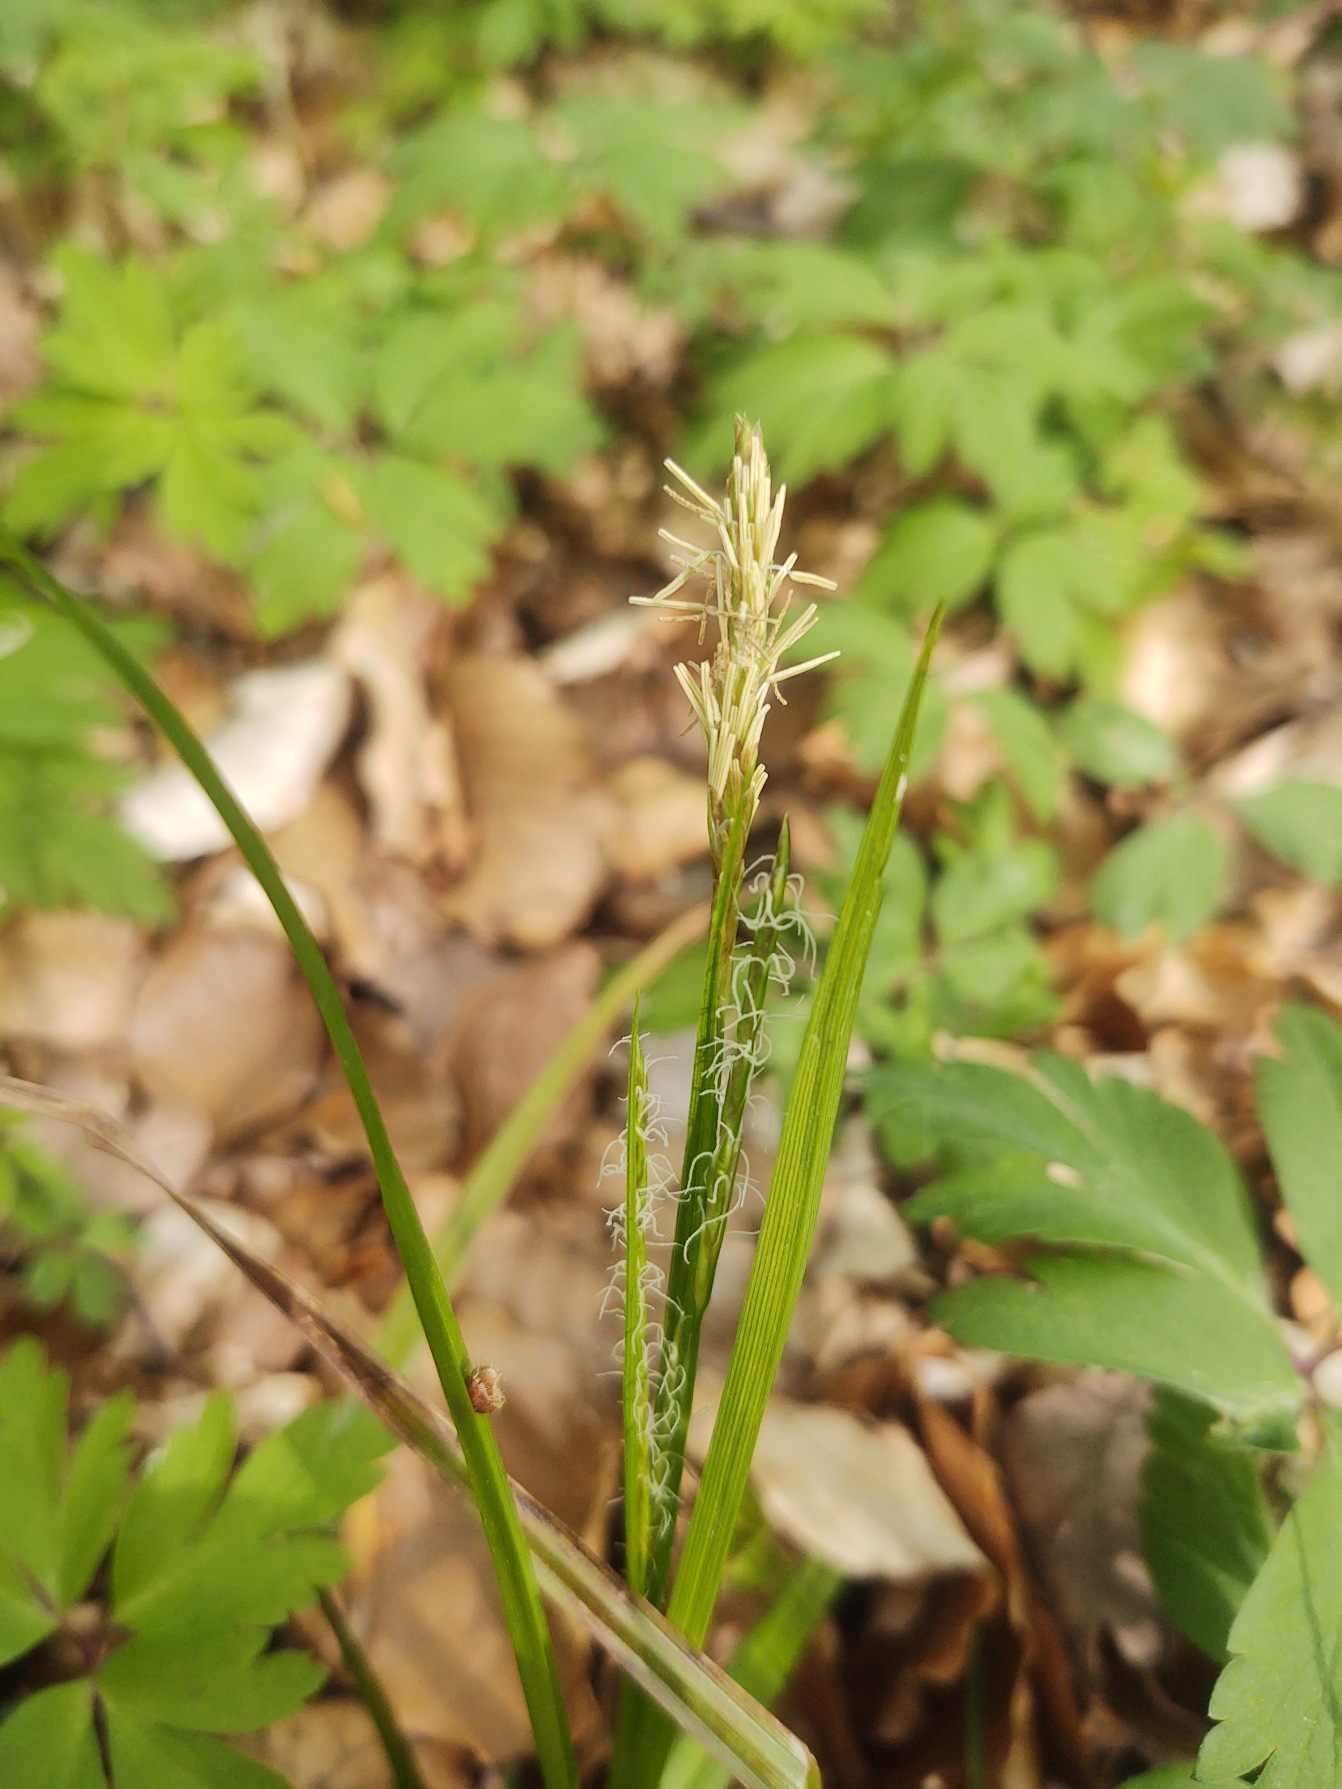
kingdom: Plantae
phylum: Tracheophyta
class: Liliopsida
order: Poales
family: Cyperaceae
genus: Carex
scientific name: Carex sylvatica
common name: Skov-star
